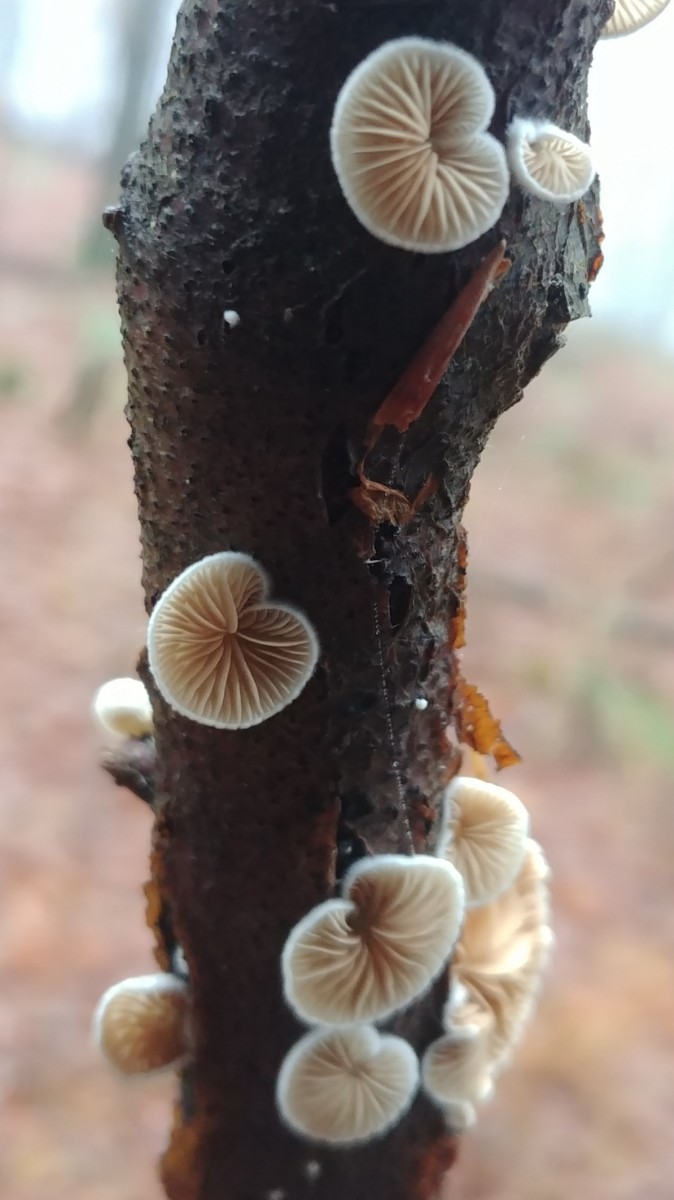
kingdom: Fungi
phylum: Basidiomycota
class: Agaricomycetes
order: Agaricales
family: Crepidotaceae
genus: Crepidotus
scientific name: Crepidotus cesatii
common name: almindelig muslingesvamp
